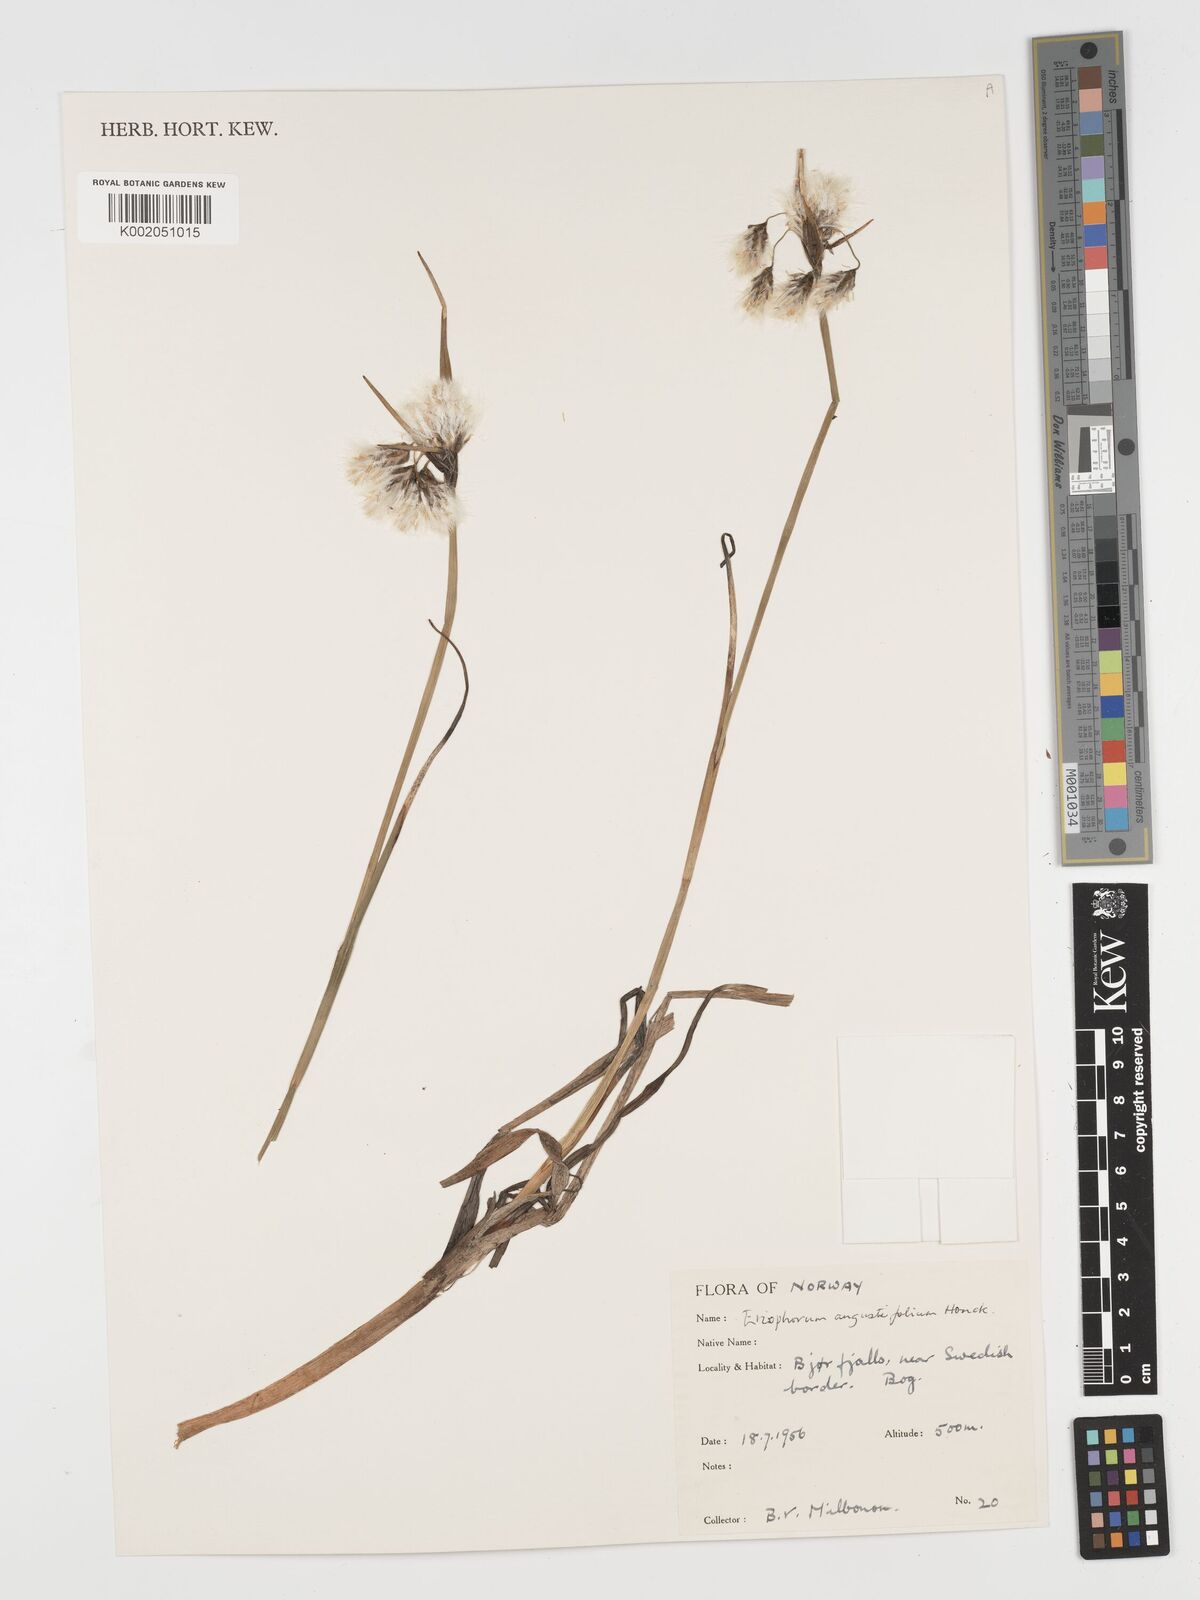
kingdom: Plantae
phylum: Tracheophyta
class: Liliopsida
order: Poales
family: Cyperaceae
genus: Eriophorum
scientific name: Eriophorum angustifolium
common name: Common cottongrass
